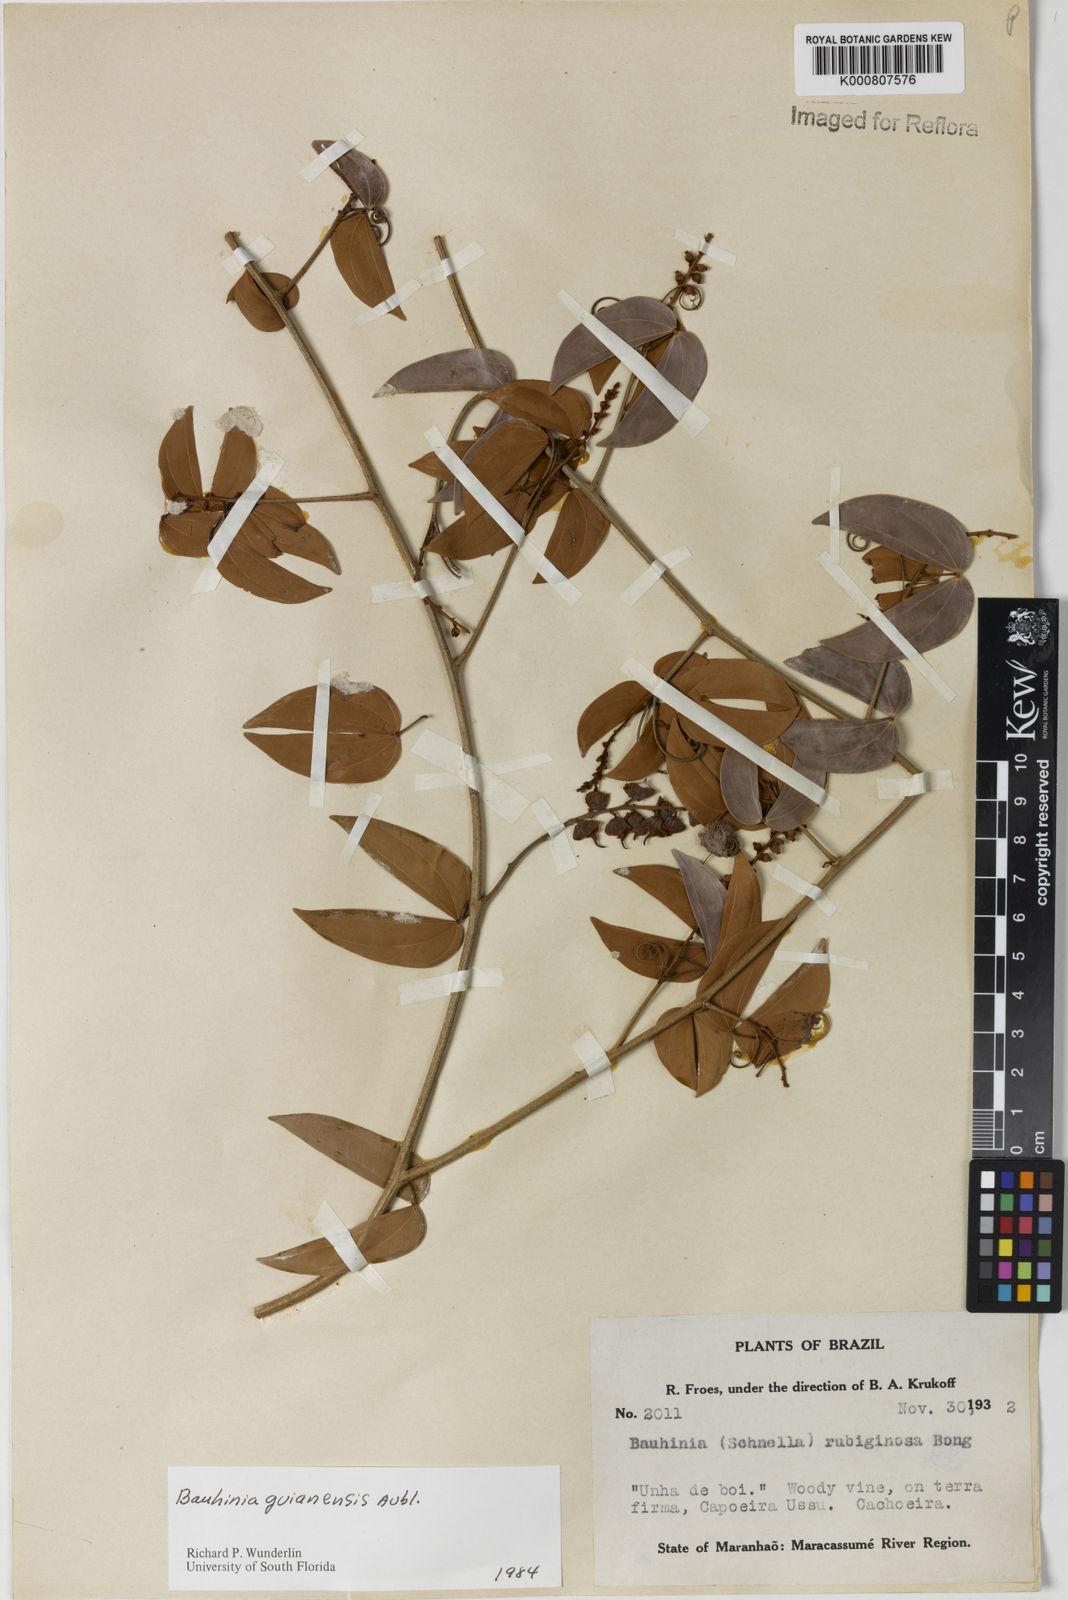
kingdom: Plantae
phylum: Tracheophyta
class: Magnoliopsida
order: Fabales
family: Fabaceae
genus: Schnella
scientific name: Schnella guianensis
